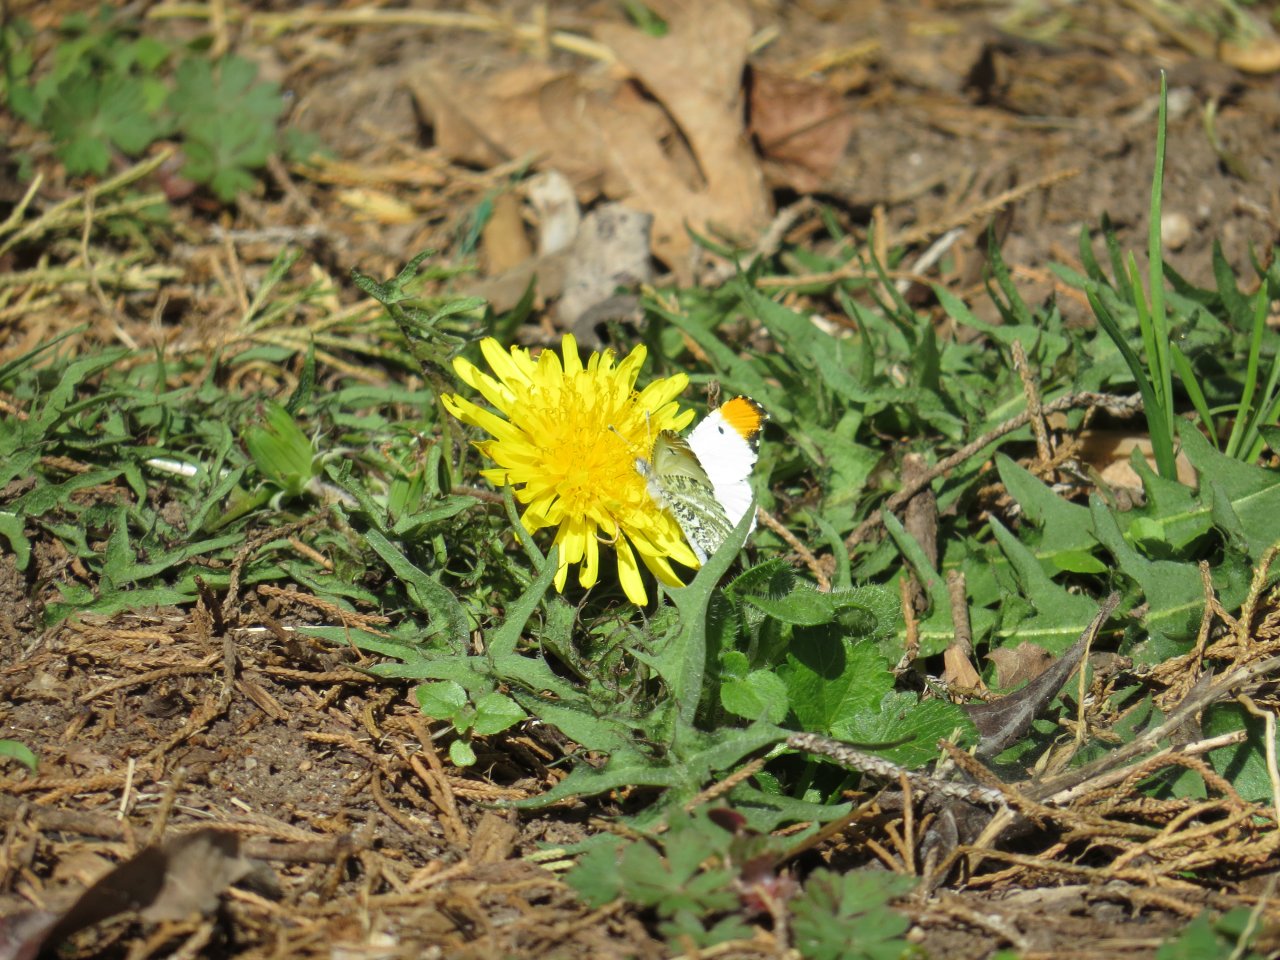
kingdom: Animalia
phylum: Arthropoda
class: Insecta
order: Lepidoptera
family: Pieridae
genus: Anthocharis
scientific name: Anthocharis midea
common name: Falcate Orangetip
